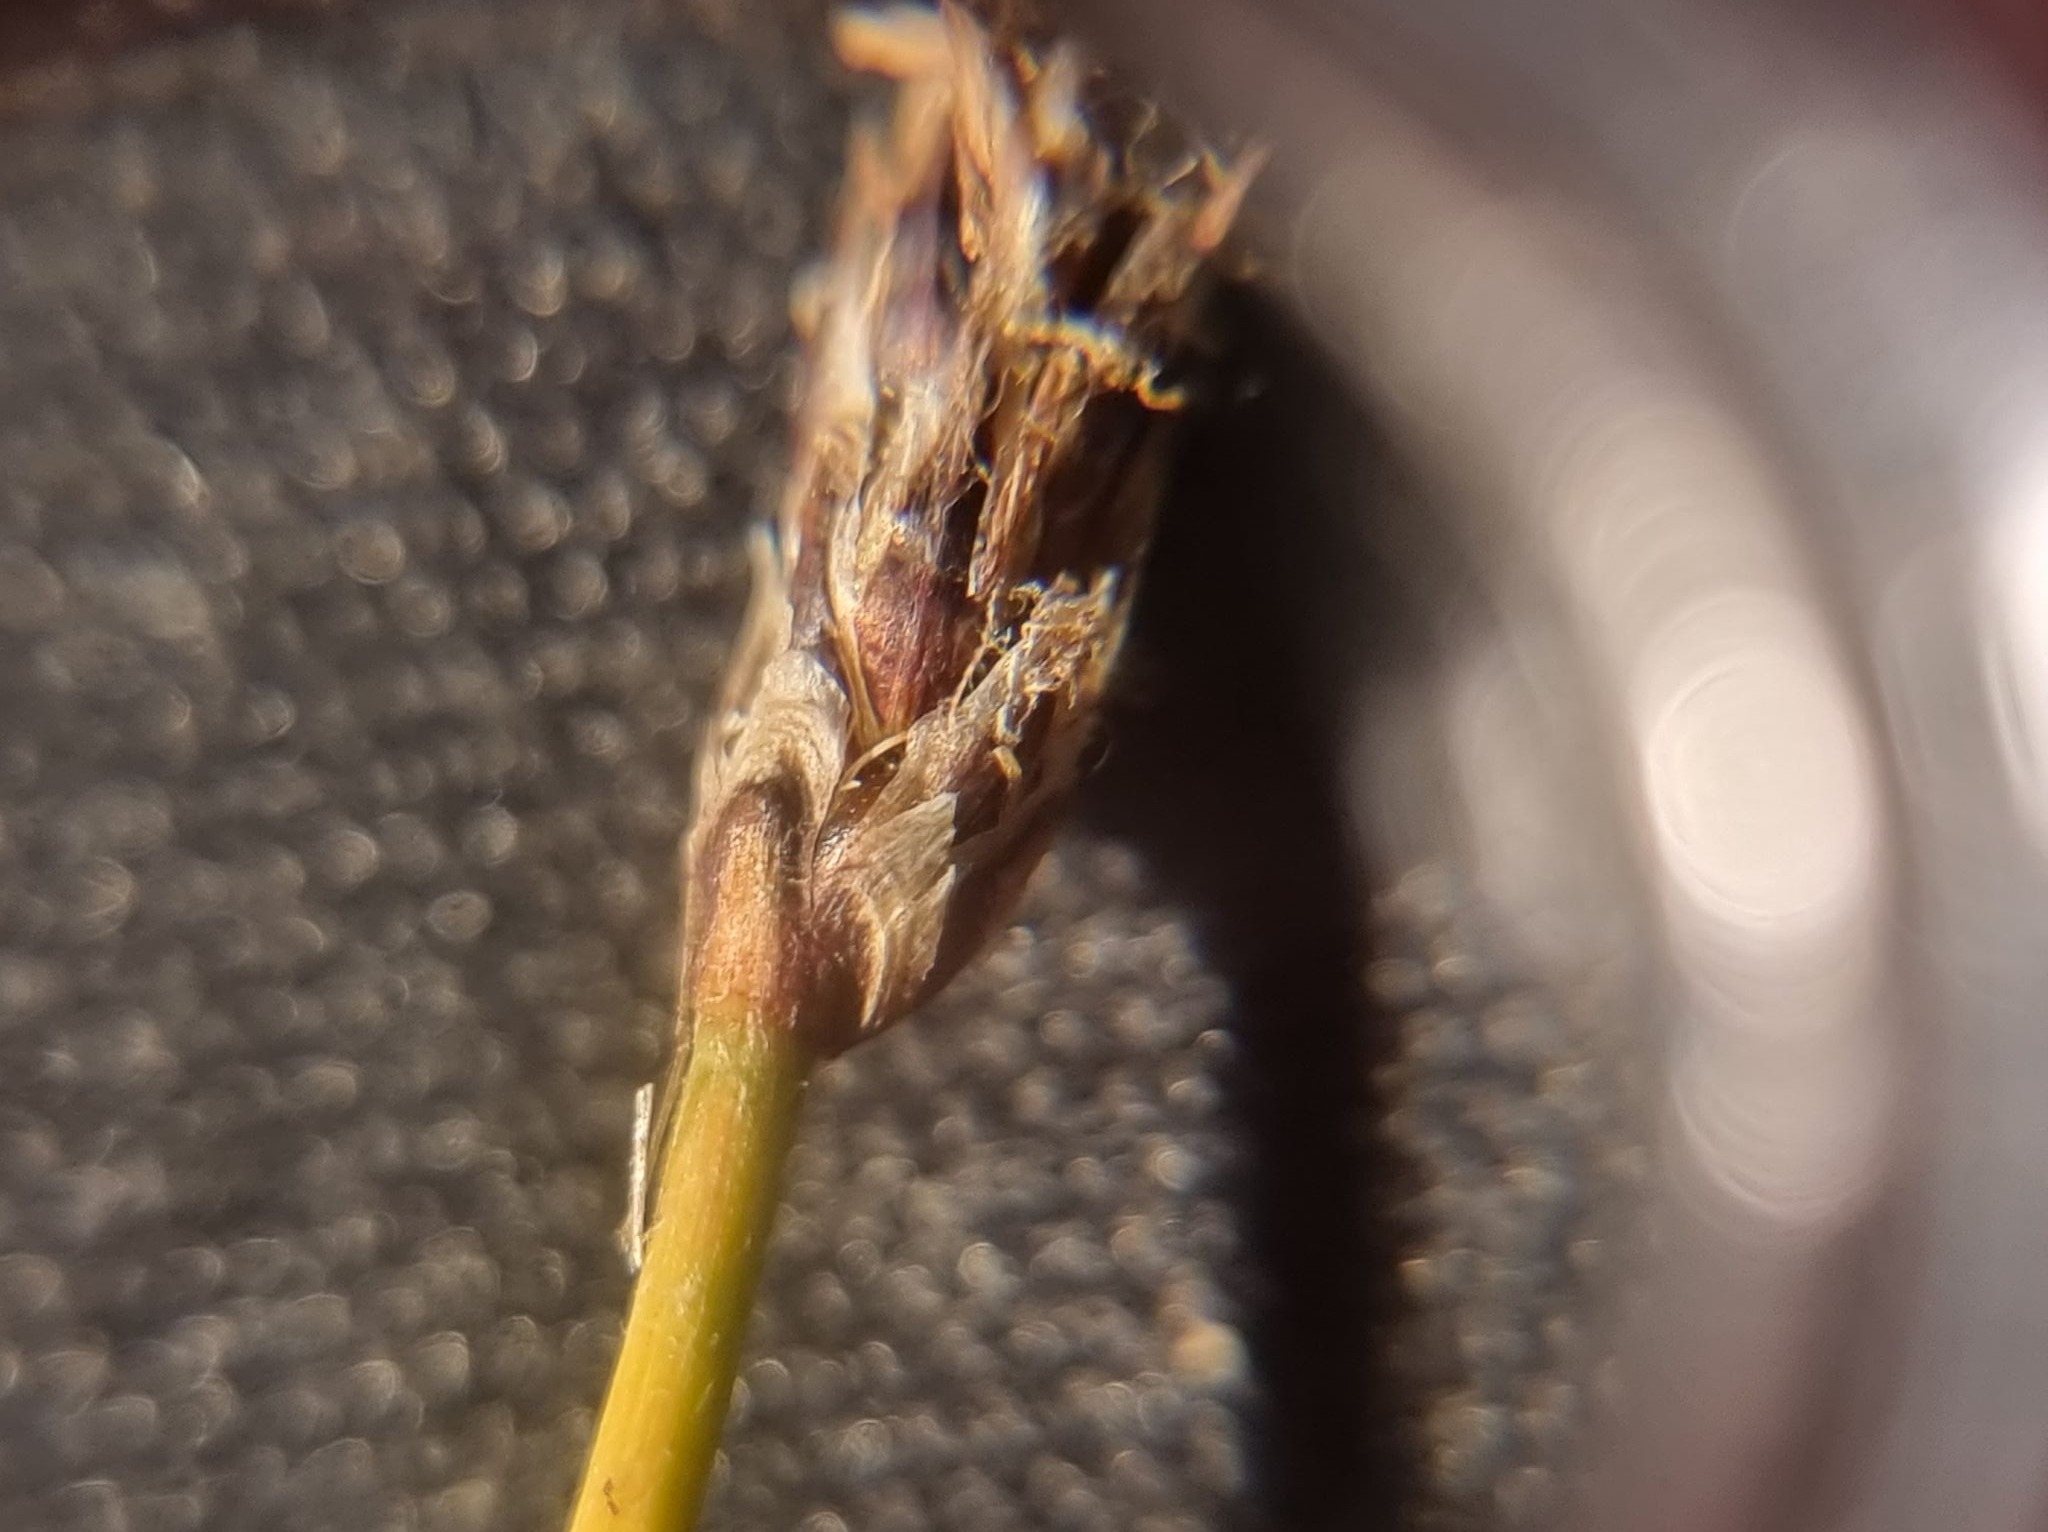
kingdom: Plantae
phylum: Tracheophyta
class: Liliopsida
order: Poales
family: Cyperaceae
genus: Eleocharis
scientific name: Eleocharis palustris
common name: Almindelig sumpstrå
